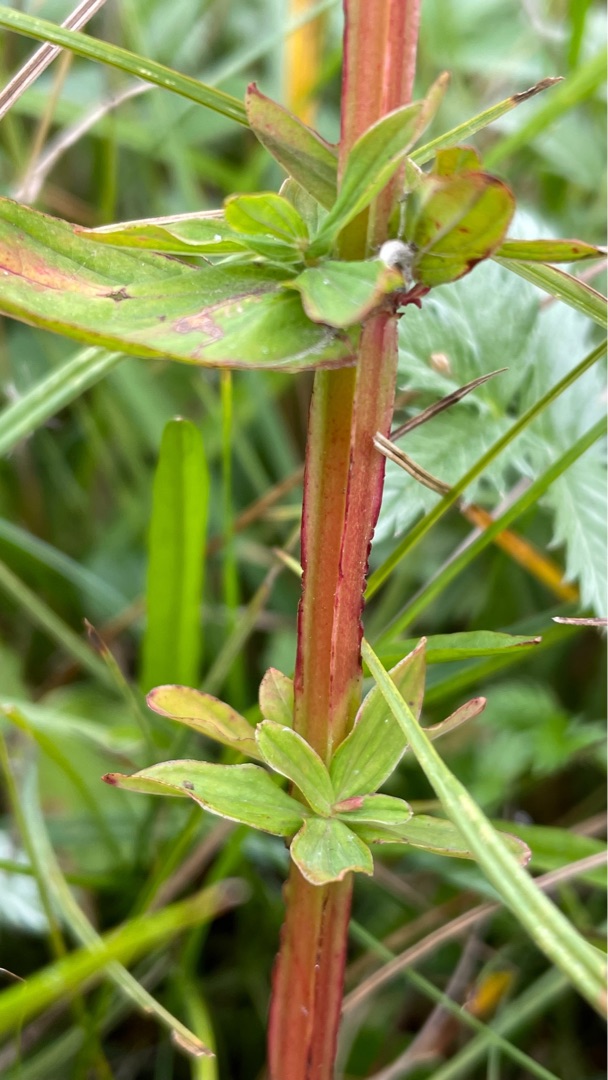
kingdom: Plantae
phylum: Tracheophyta
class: Magnoliopsida
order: Malpighiales
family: Hypericaceae
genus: Hypericum
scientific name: Hypericum tetrapterum
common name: Vinget perikon
